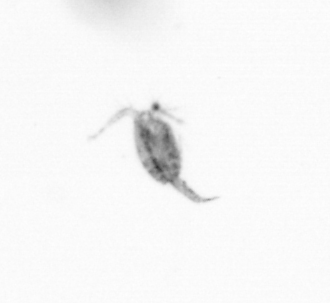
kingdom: Animalia
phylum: Arthropoda
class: Copepoda
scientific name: Copepoda
